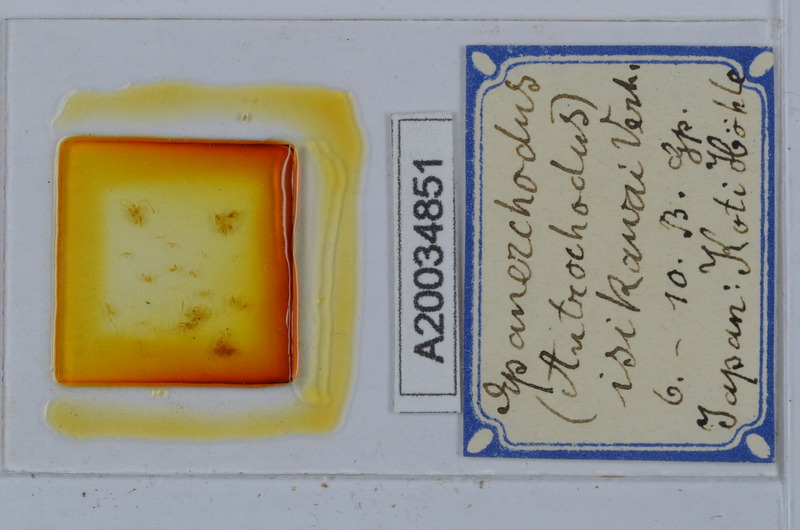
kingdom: Animalia
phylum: Arthropoda
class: Diplopoda
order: Polydesmida
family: Polydesmidae
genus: Antrochodus
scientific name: Antrochodus isikawai
